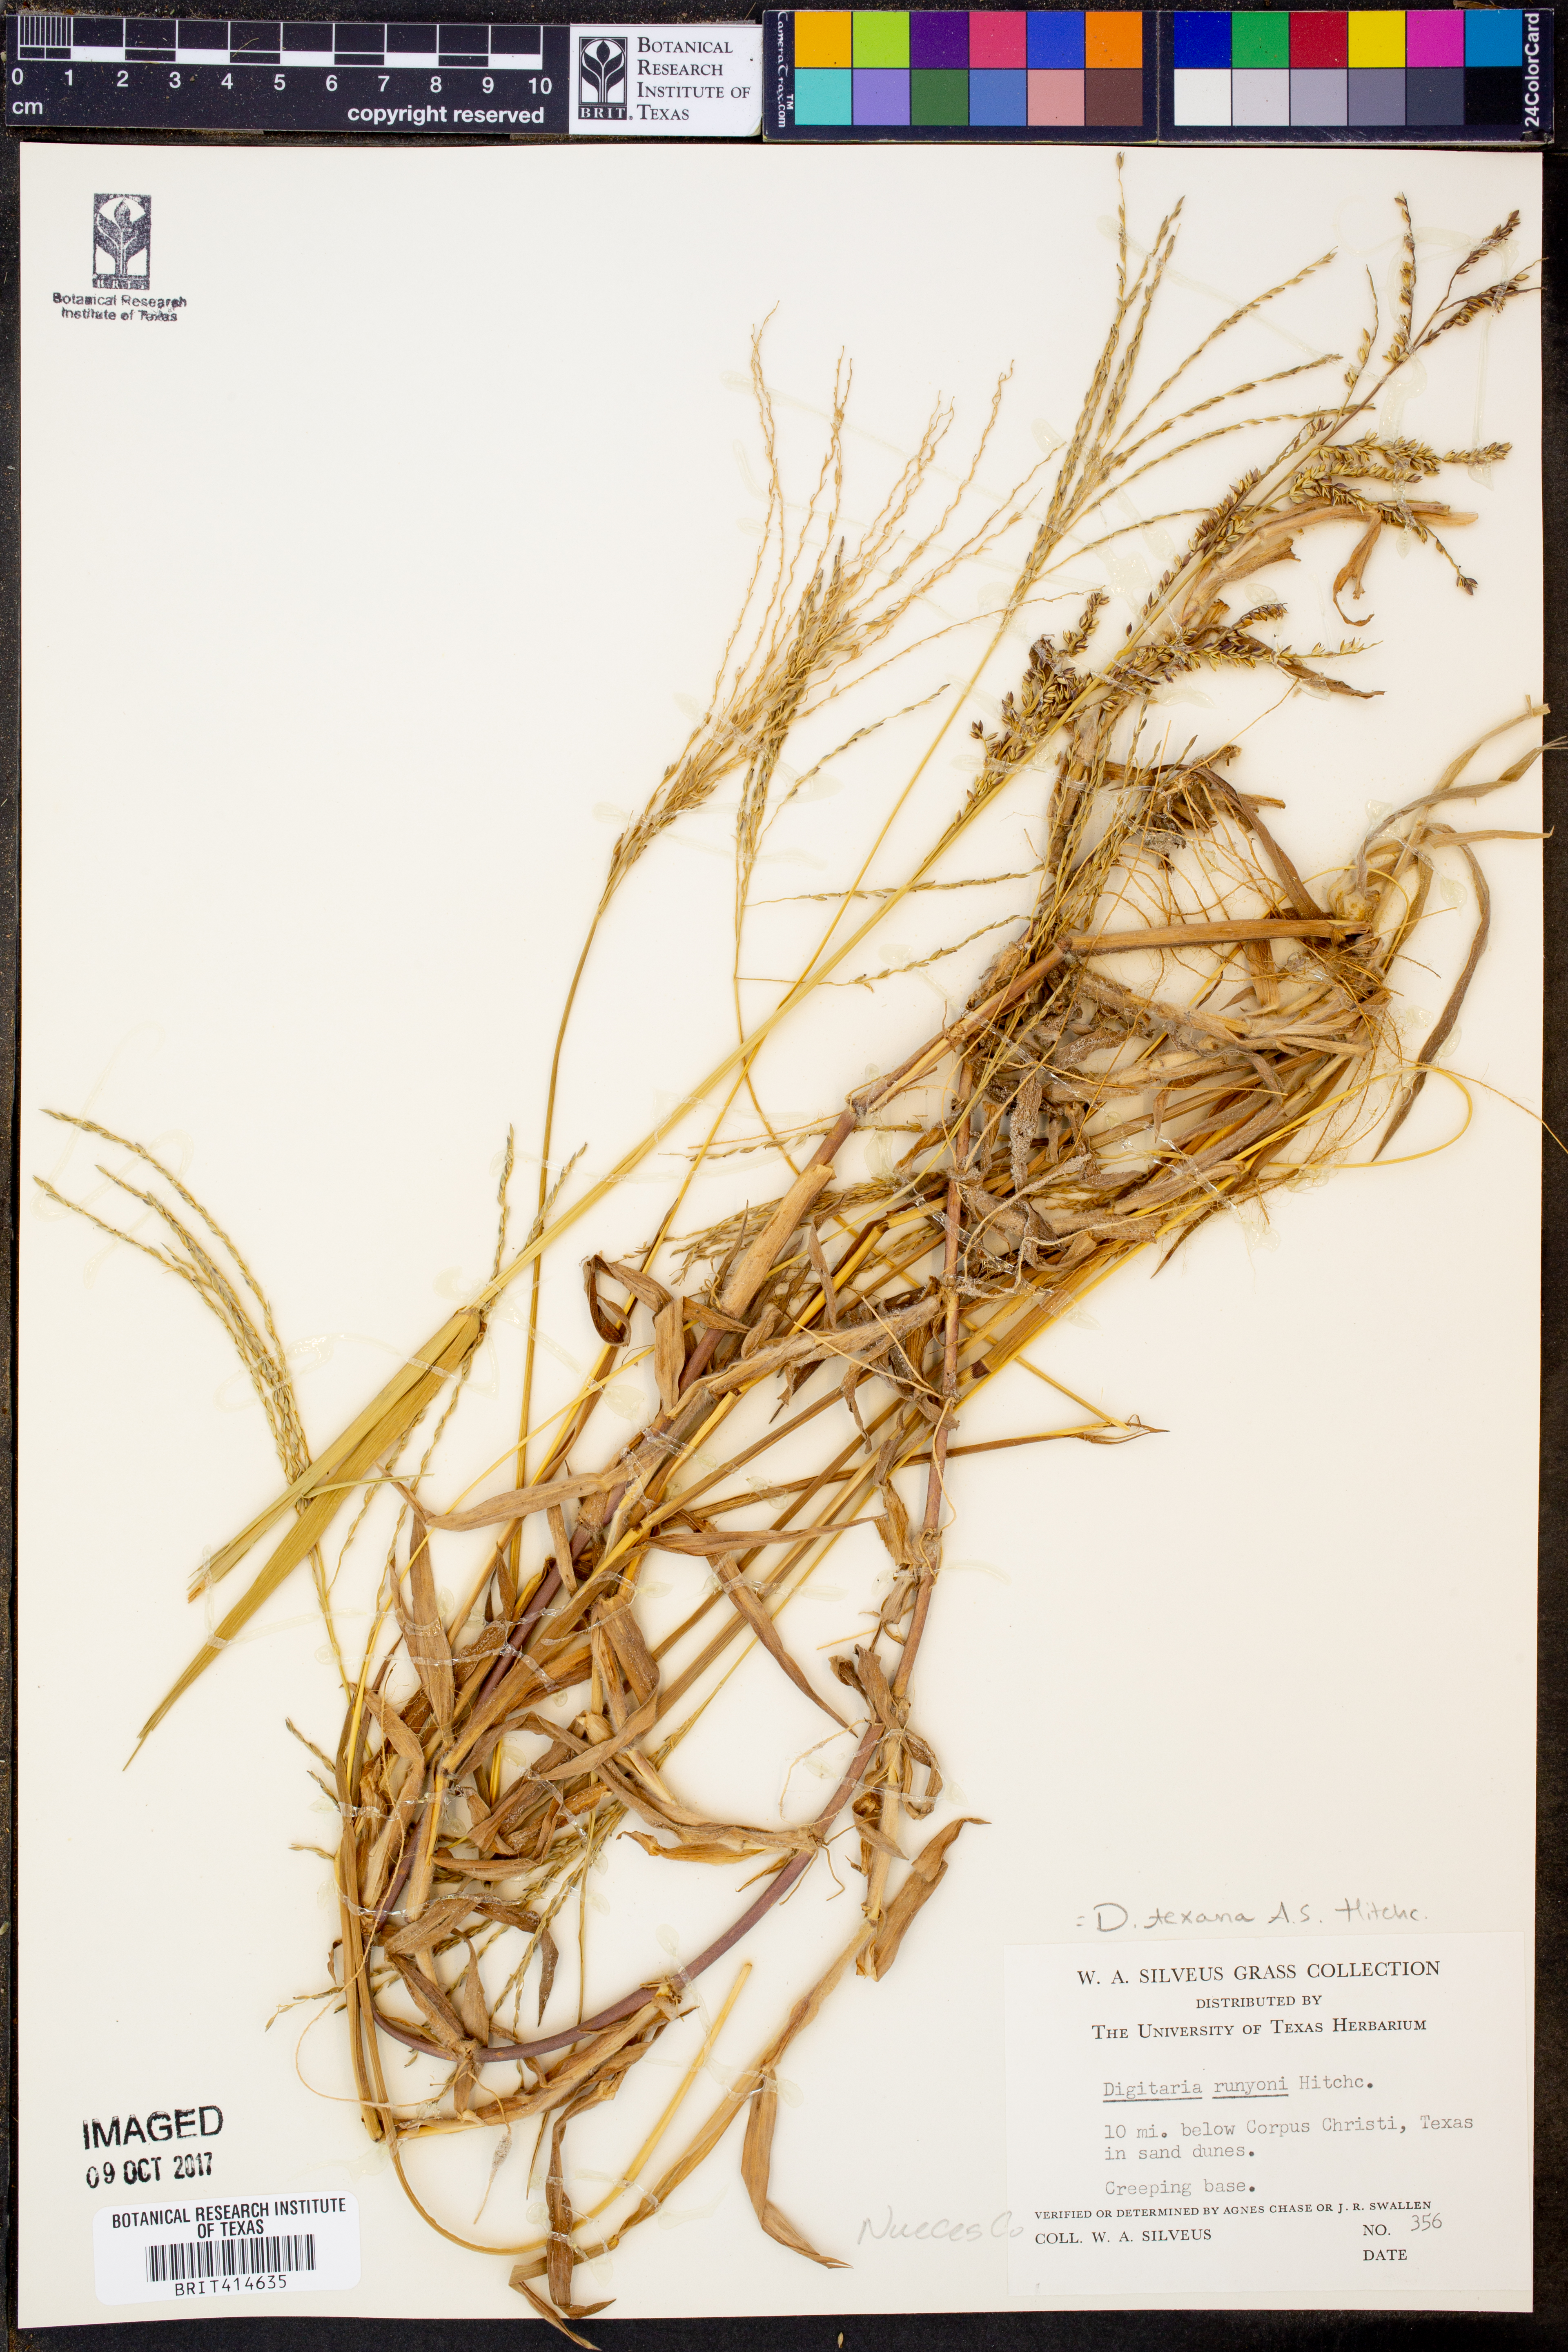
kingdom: Plantae
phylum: Tracheophyta
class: Liliopsida
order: Poales
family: Poaceae
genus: Digitaria
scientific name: Digitaria texana
